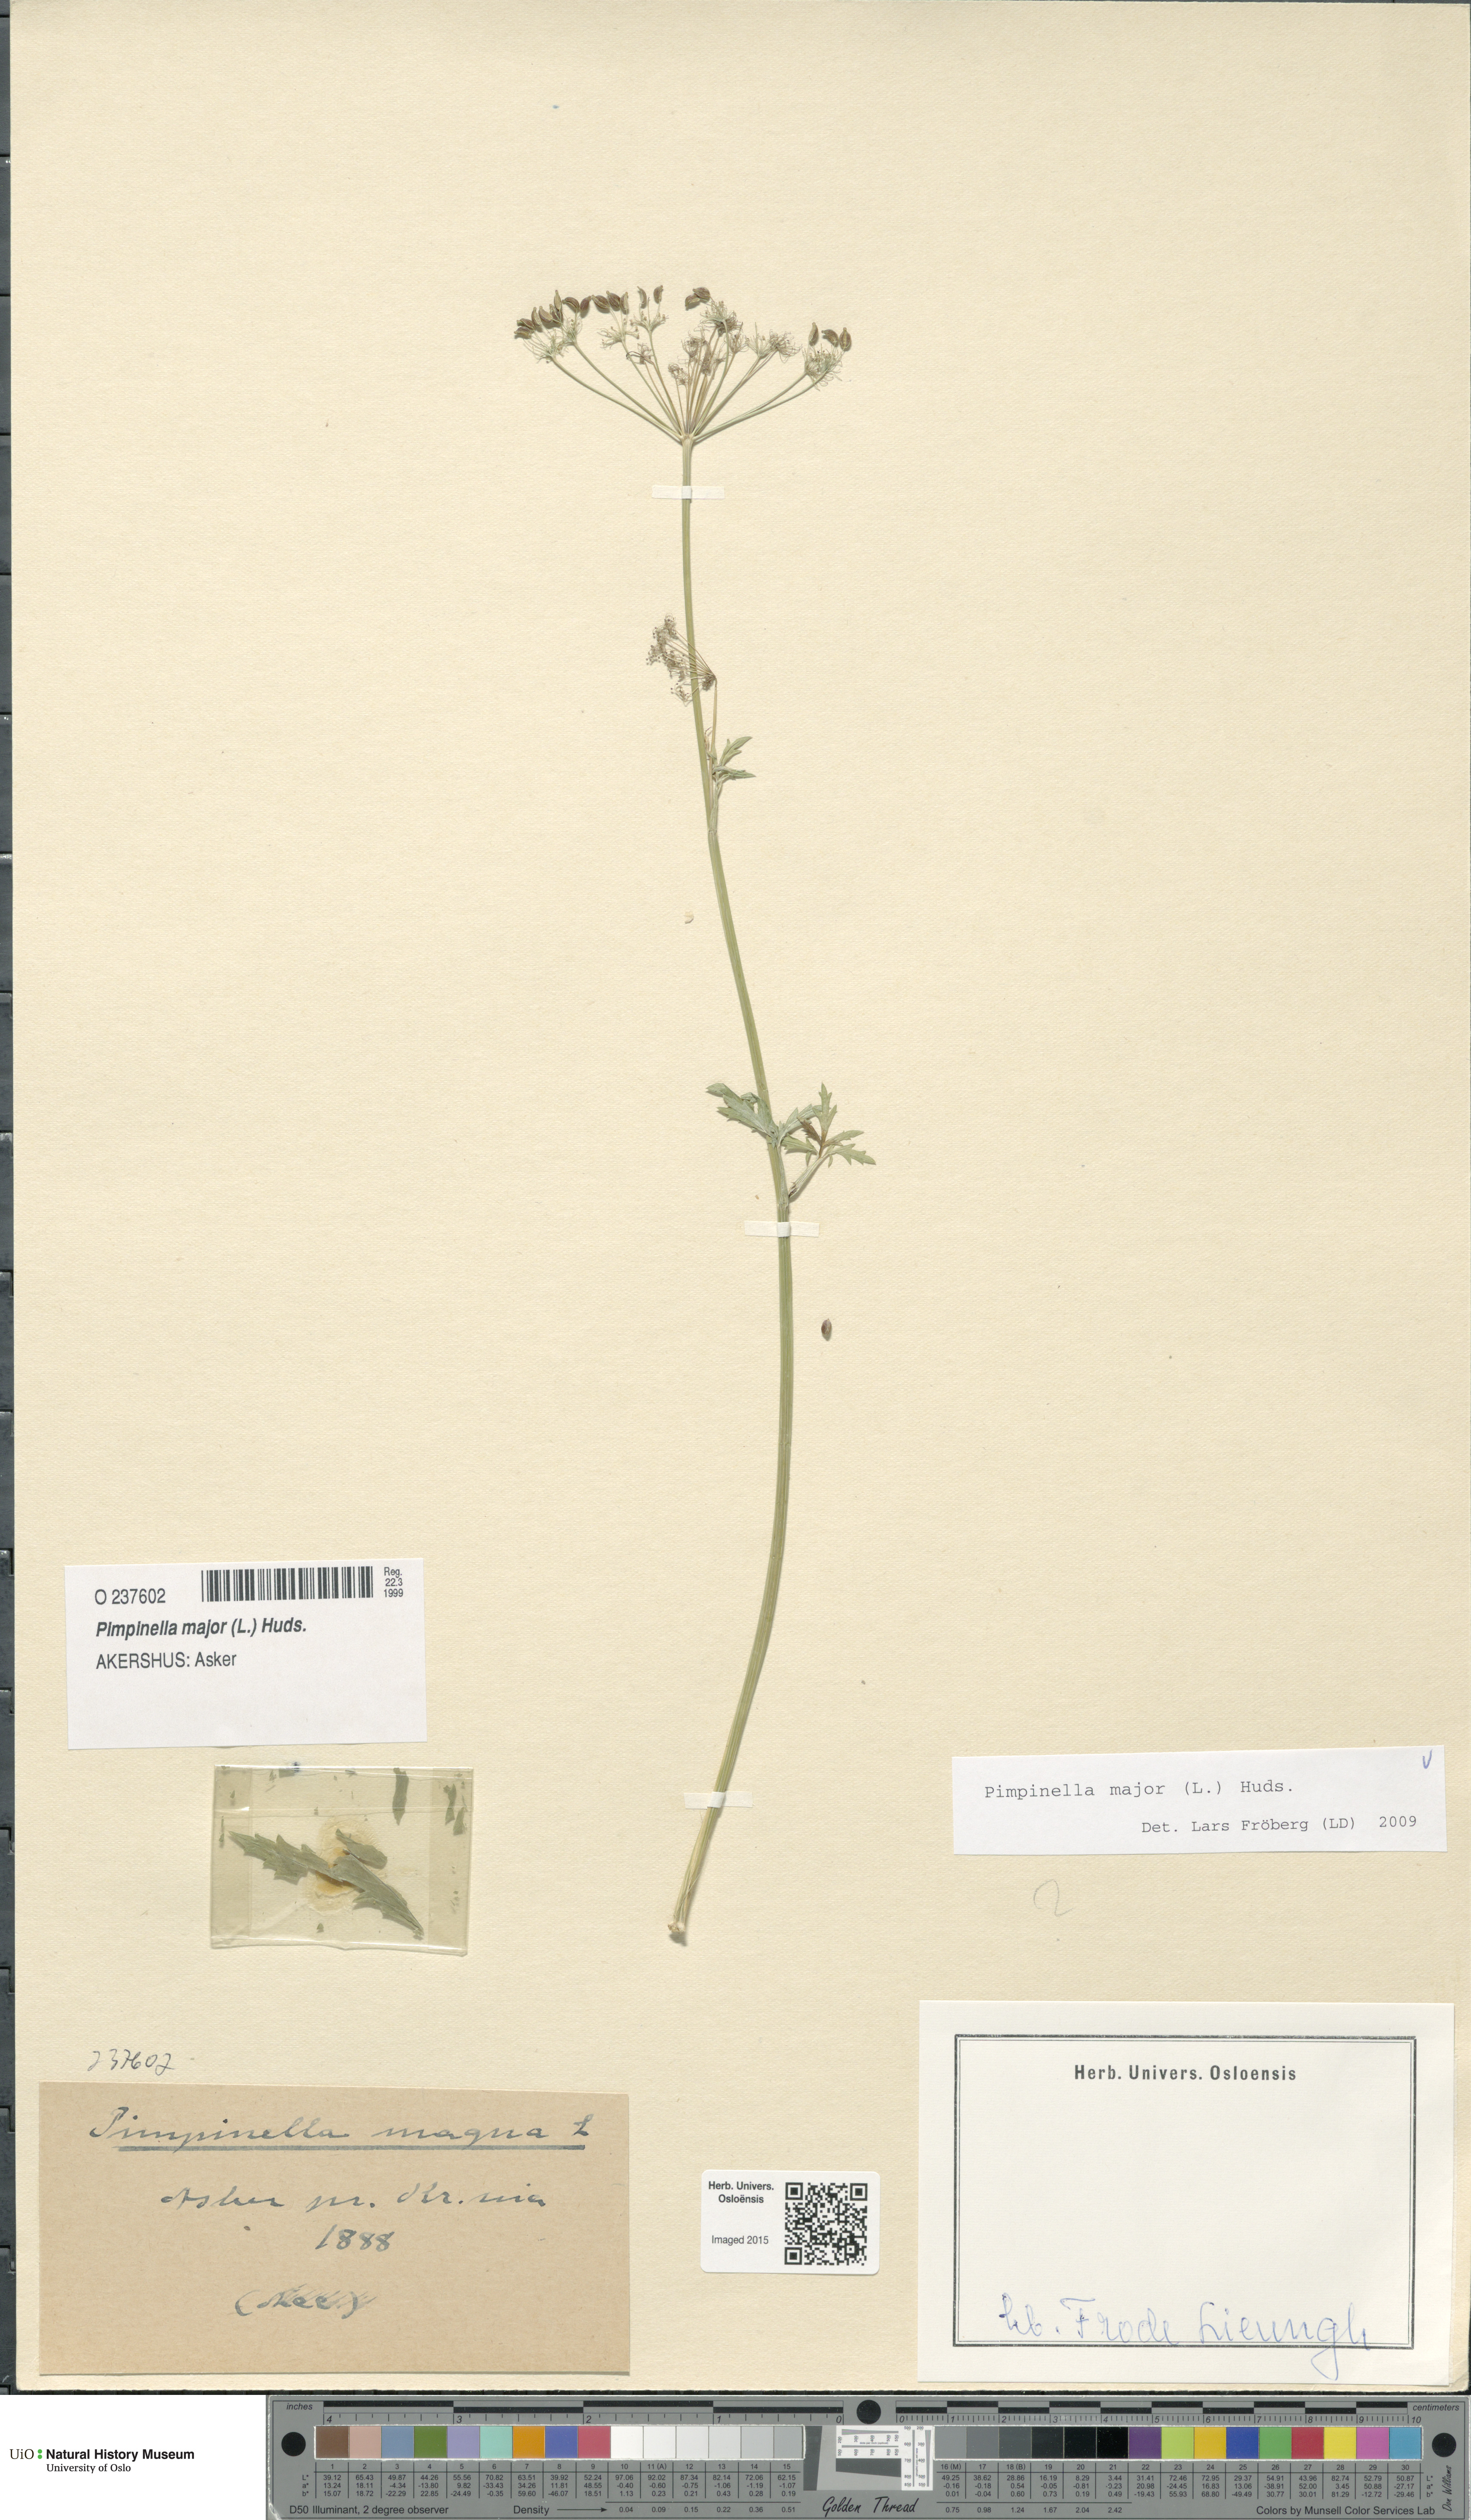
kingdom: Plantae
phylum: Tracheophyta
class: Magnoliopsida
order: Apiales
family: Apiaceae
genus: Pimpinella
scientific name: Pimpinella major
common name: Greater burnet-saxifrage
